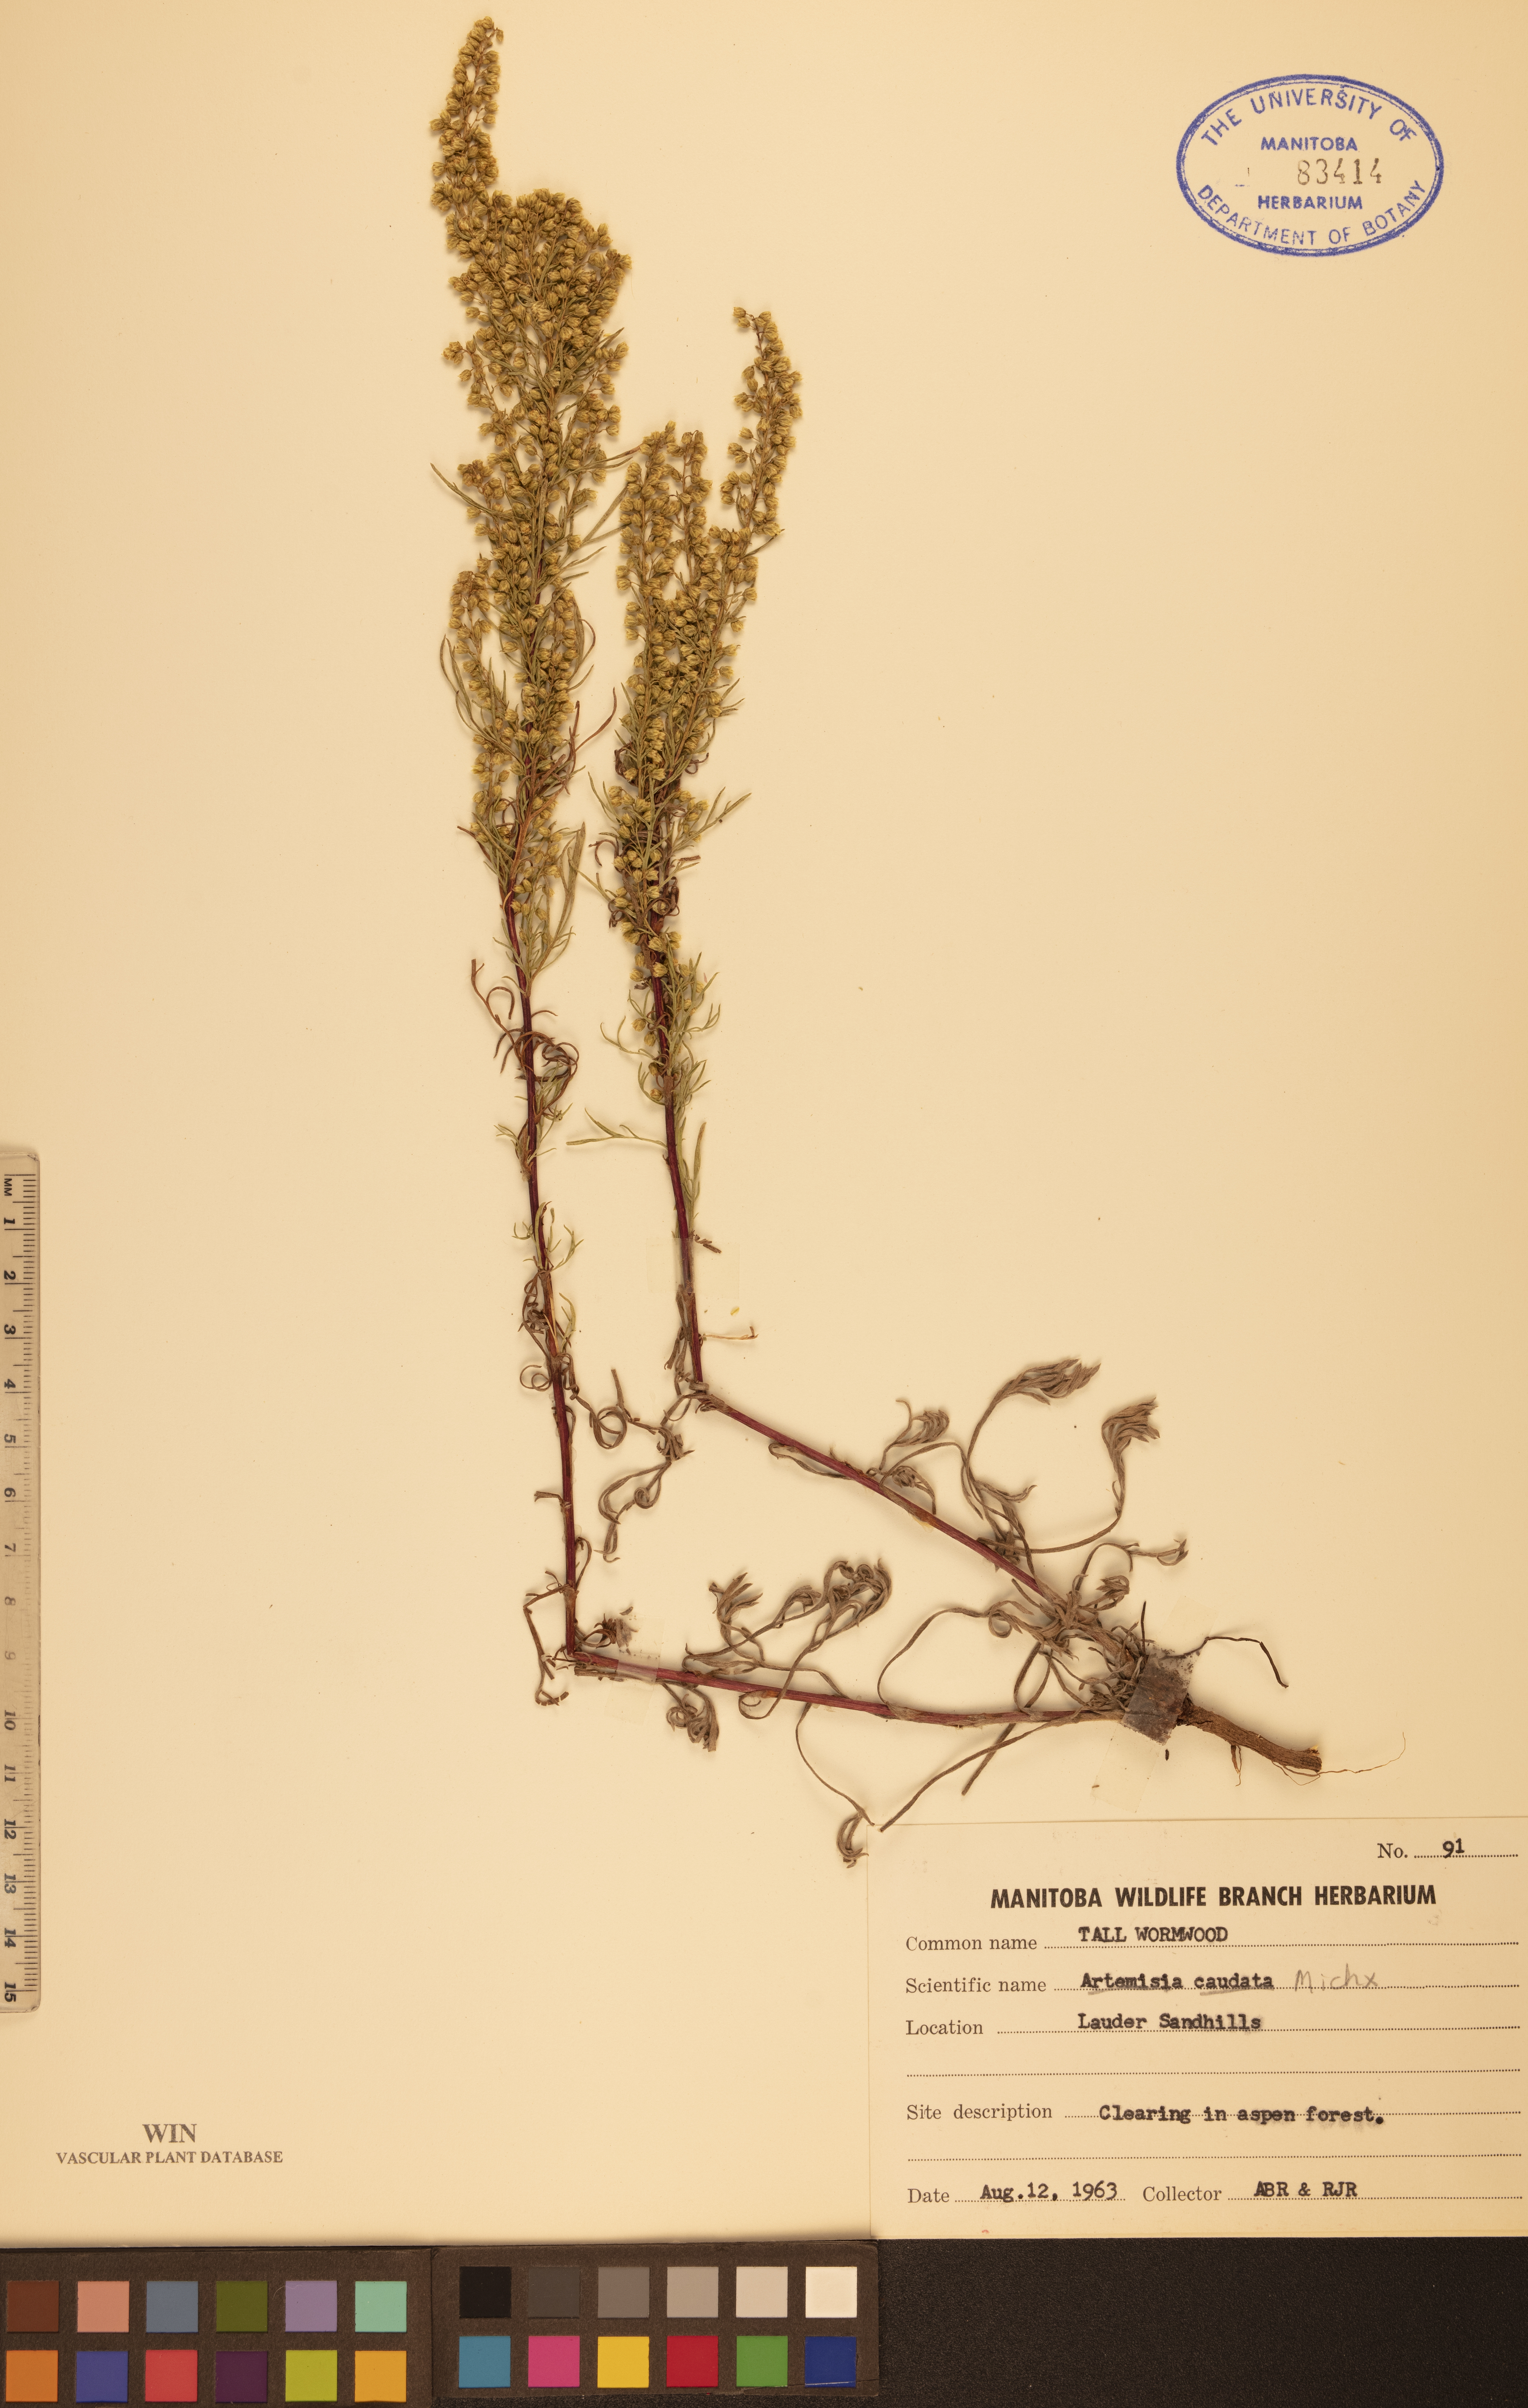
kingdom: Plantae
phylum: Tracheophyta
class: Magnoliopsida
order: Asterales
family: Asteraceae
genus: Artemisia
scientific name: Artemisia campestris
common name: Field wormwood
